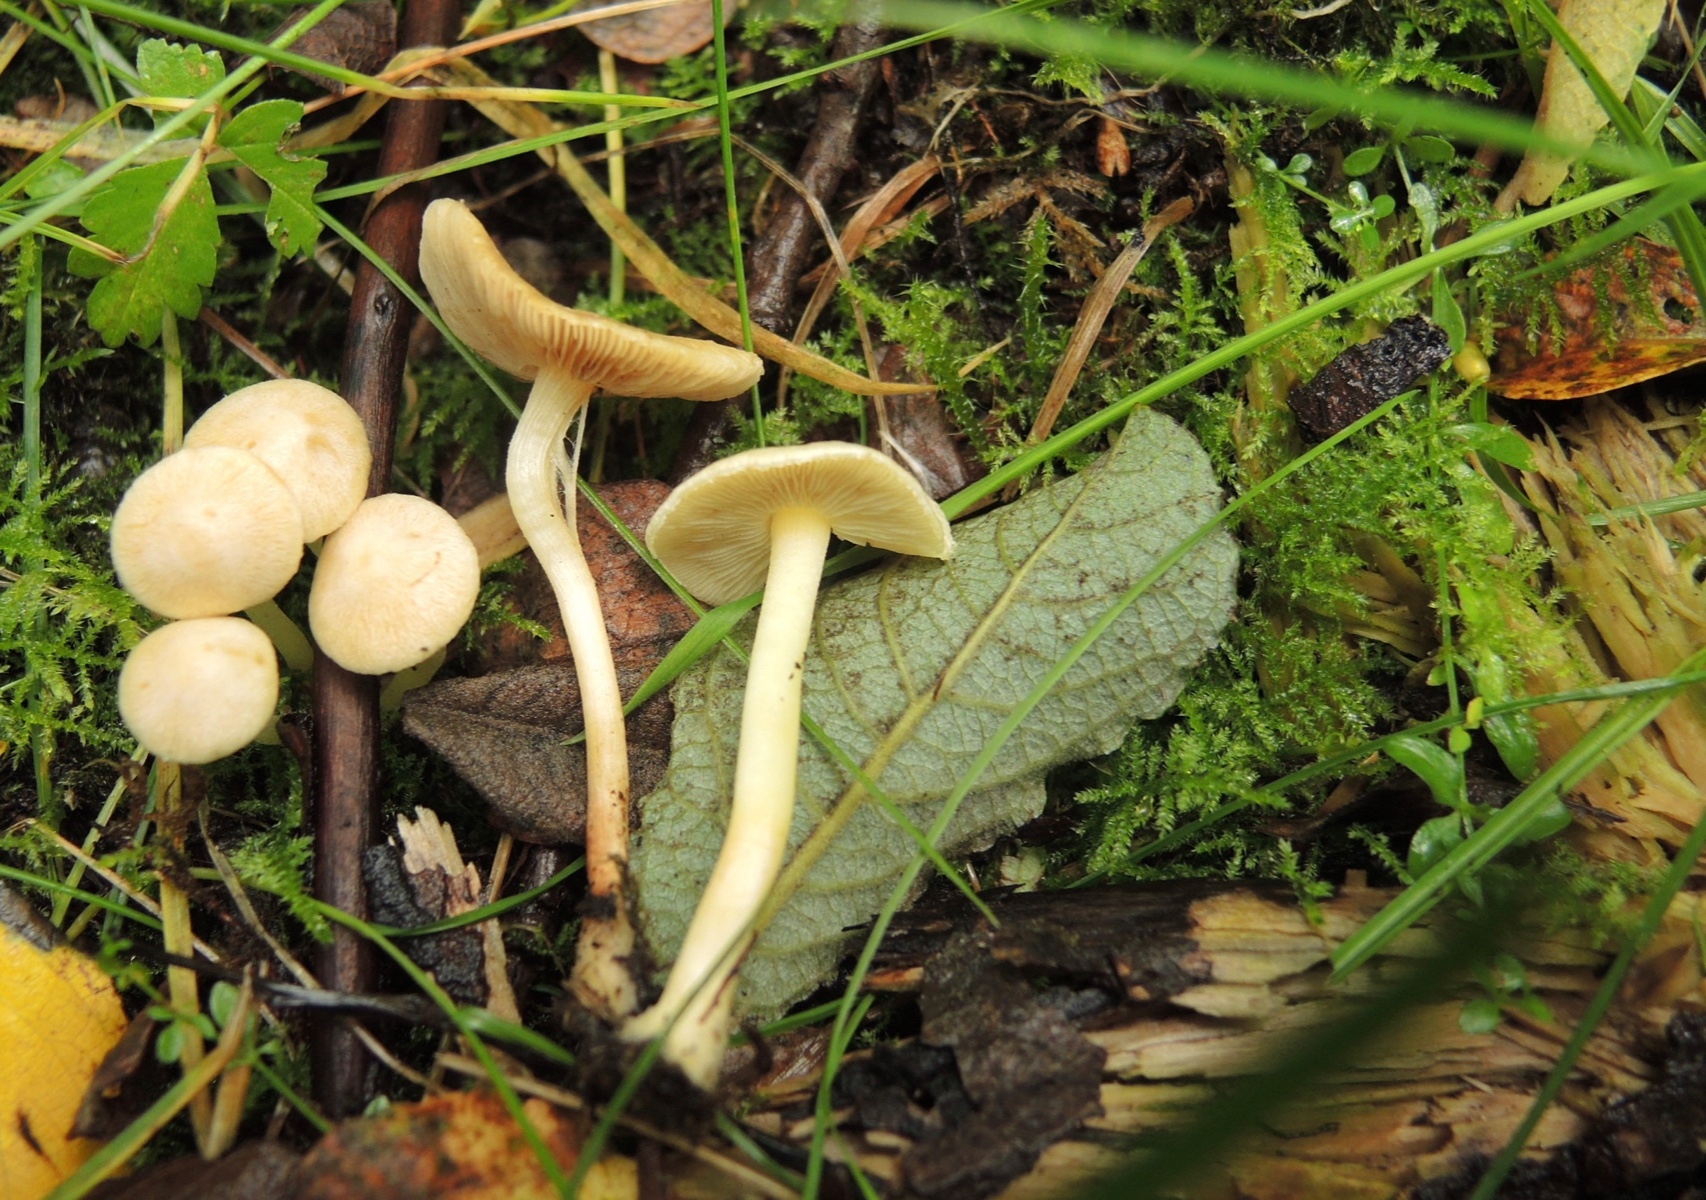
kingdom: Fungi
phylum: Basidiomycota
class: Agaricomycetes
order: Agaricales
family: Inocybaceae
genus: Inocybe
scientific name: Inocybe
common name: trævlhat
